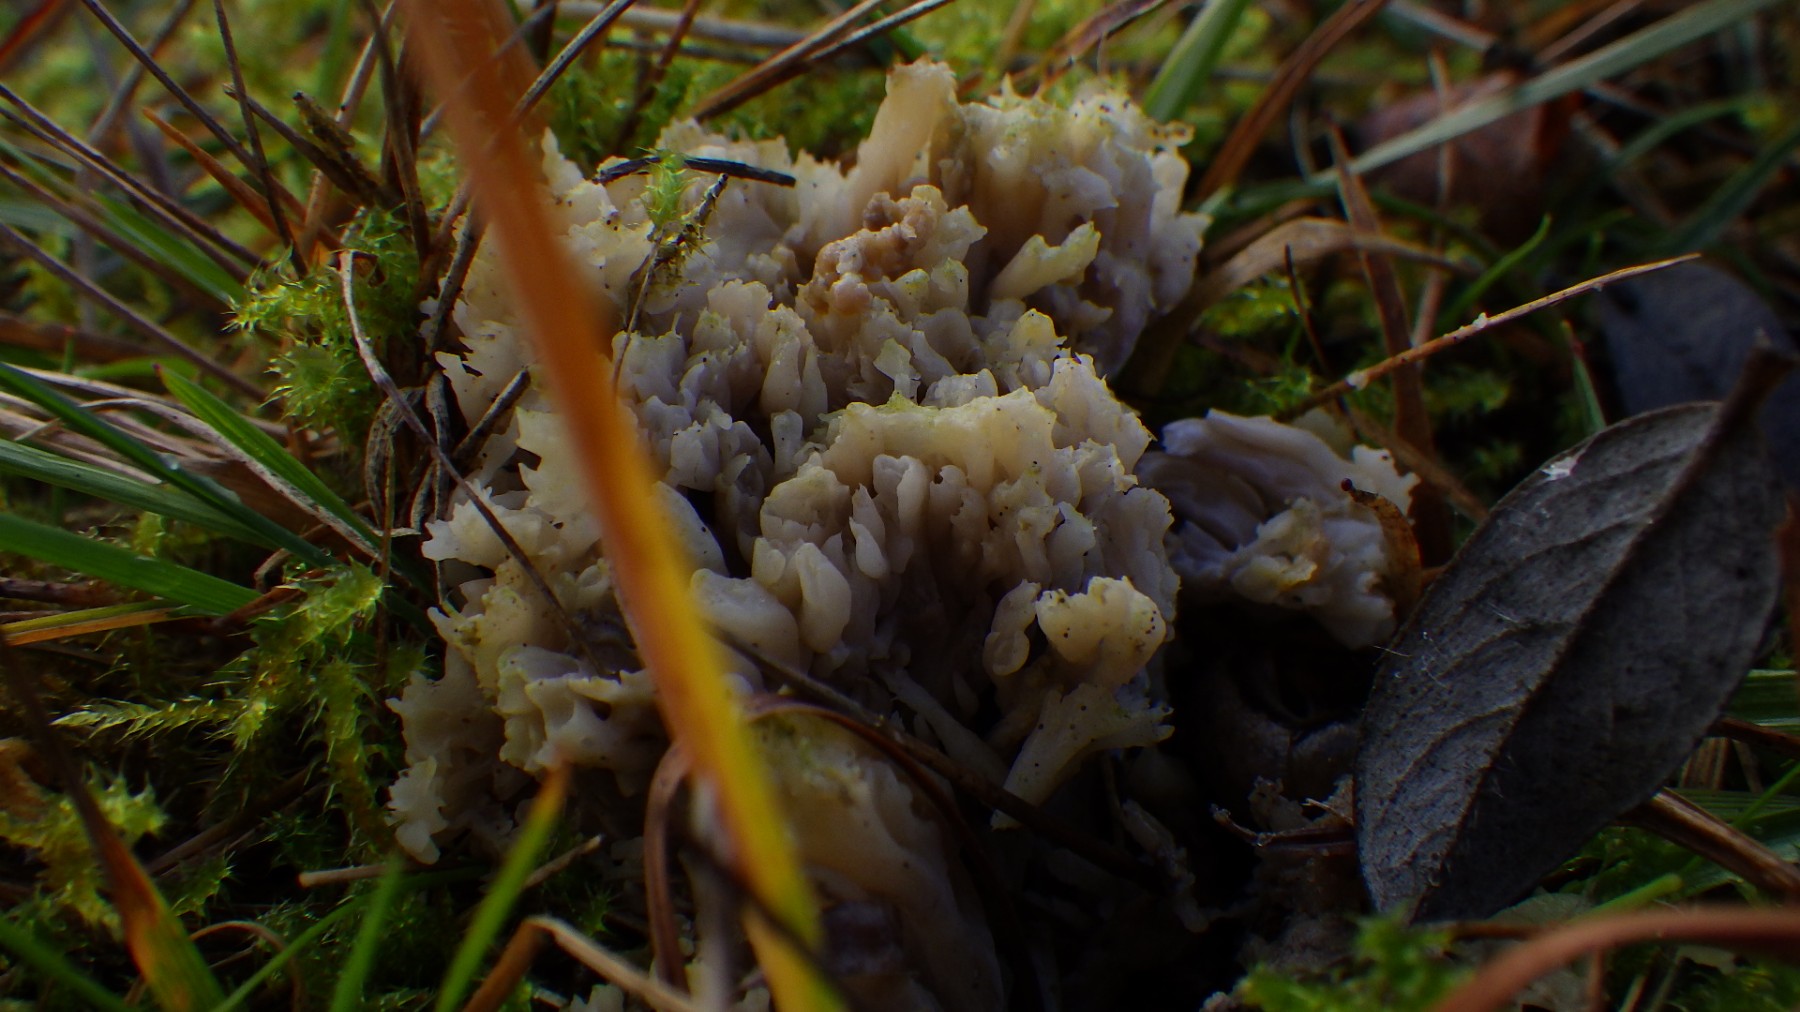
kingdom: Fungi
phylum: Basidiomycota
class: Agaricomycetes
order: Cantharellales
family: Hydnaceae
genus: Clavulina
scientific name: Clavulina
